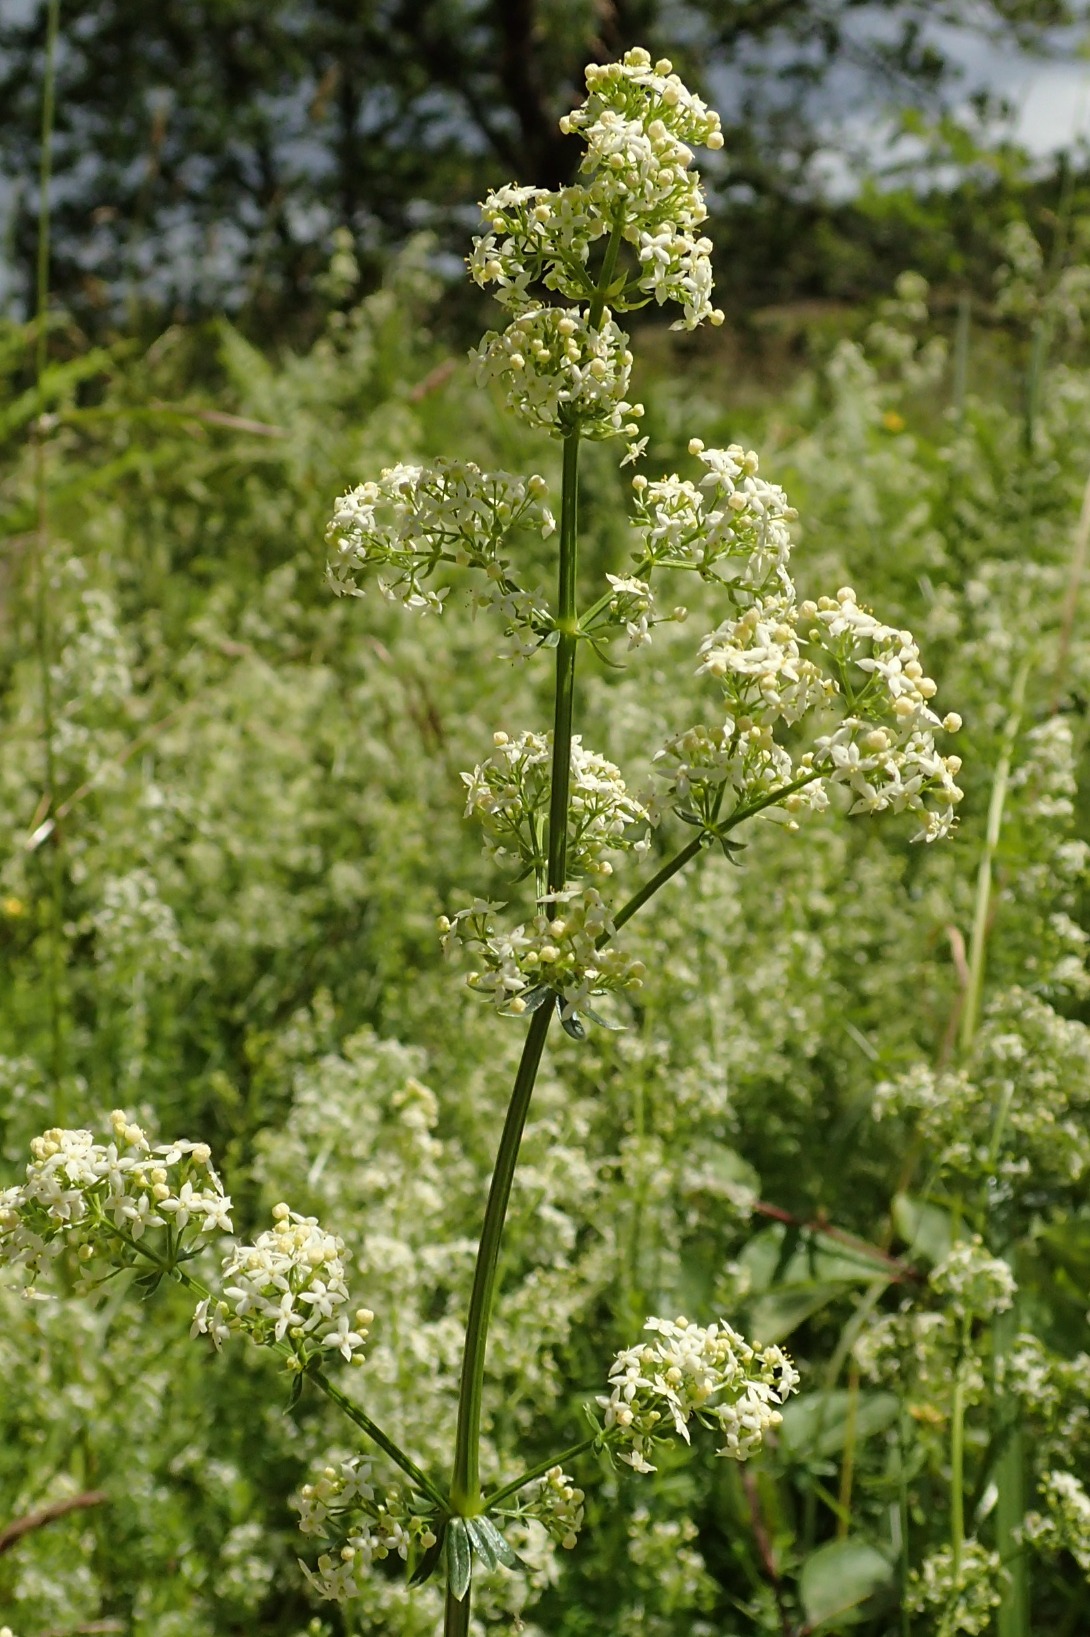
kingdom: Plantae
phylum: Tracheophyta
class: Magnoliopsida
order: Gentianales
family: Rubiaceae
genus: Galium
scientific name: Galium mollugo
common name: Hvid snerre
